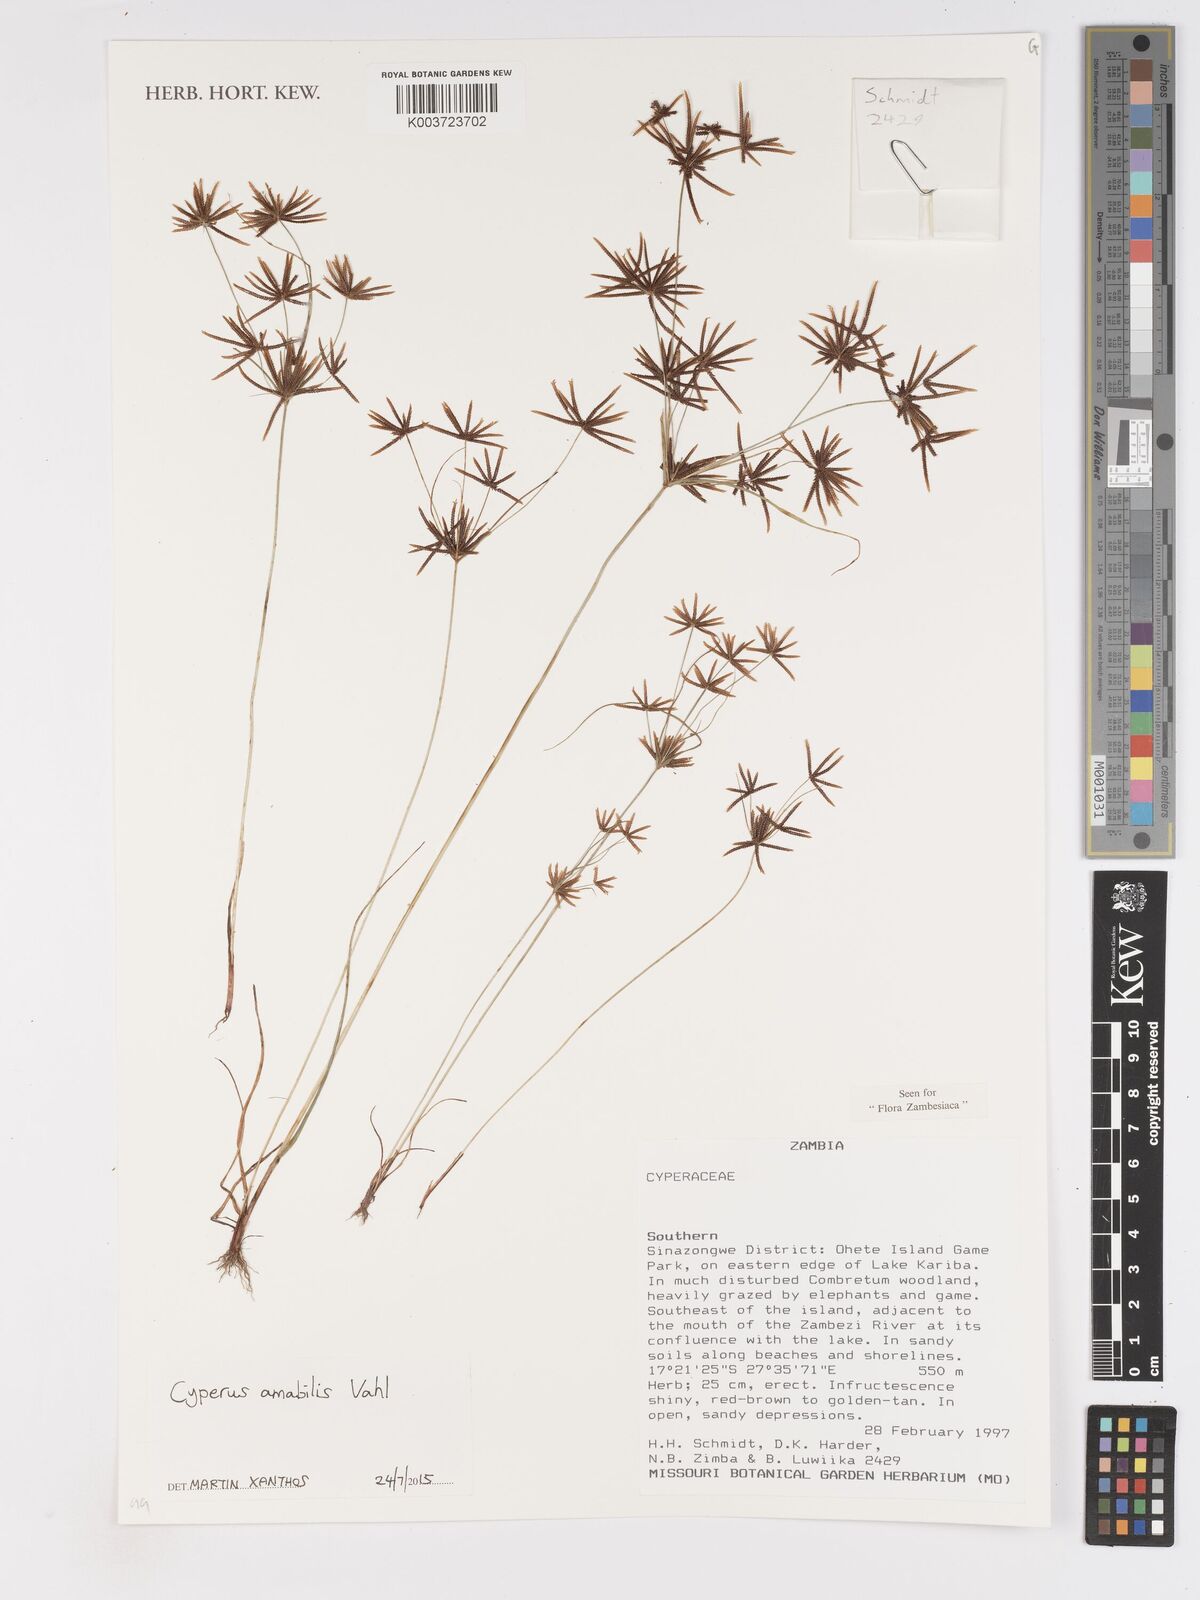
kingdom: Plantae
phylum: Tracheophyta
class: Liliopsida
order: Poales
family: Cyperaceae
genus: Cyperus
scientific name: Cyperus amabilis
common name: Foothill flat sedge
